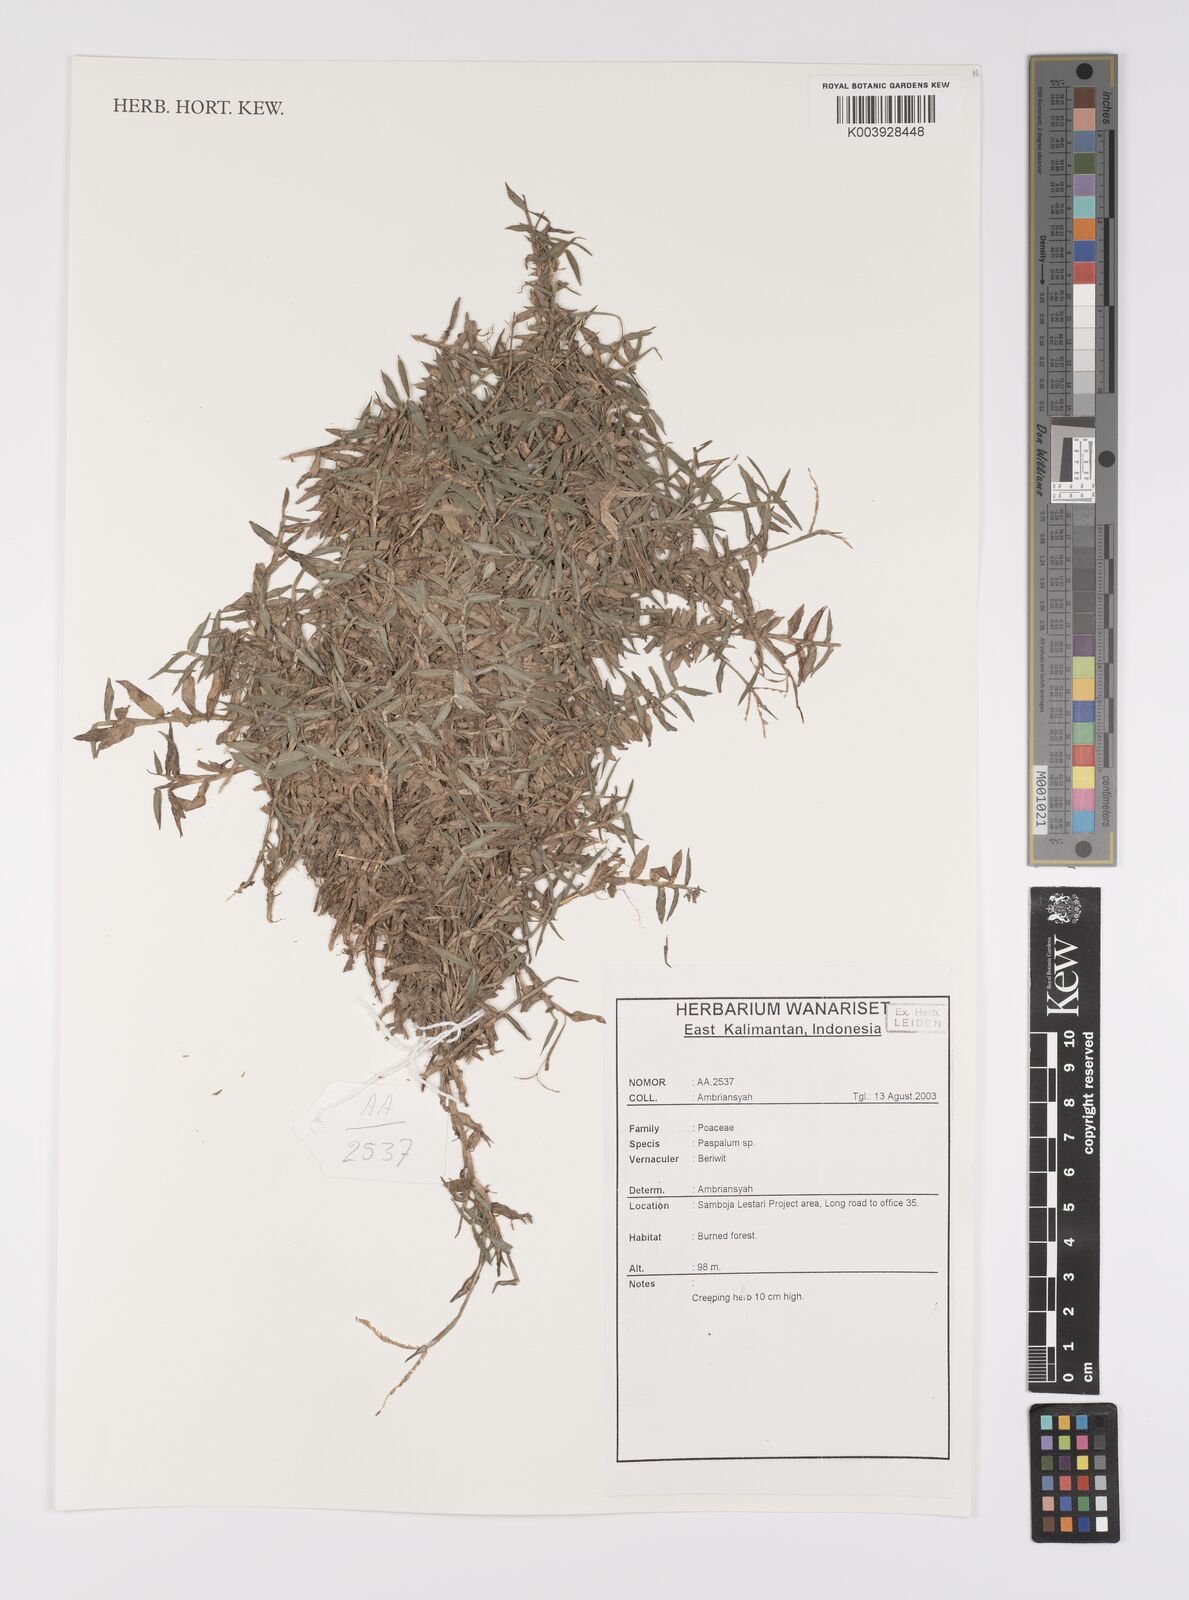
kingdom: Plantae
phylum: Tracheophyta
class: Liliopsida
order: Poales
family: Poaceae
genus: Paspalum
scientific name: Paspalum
